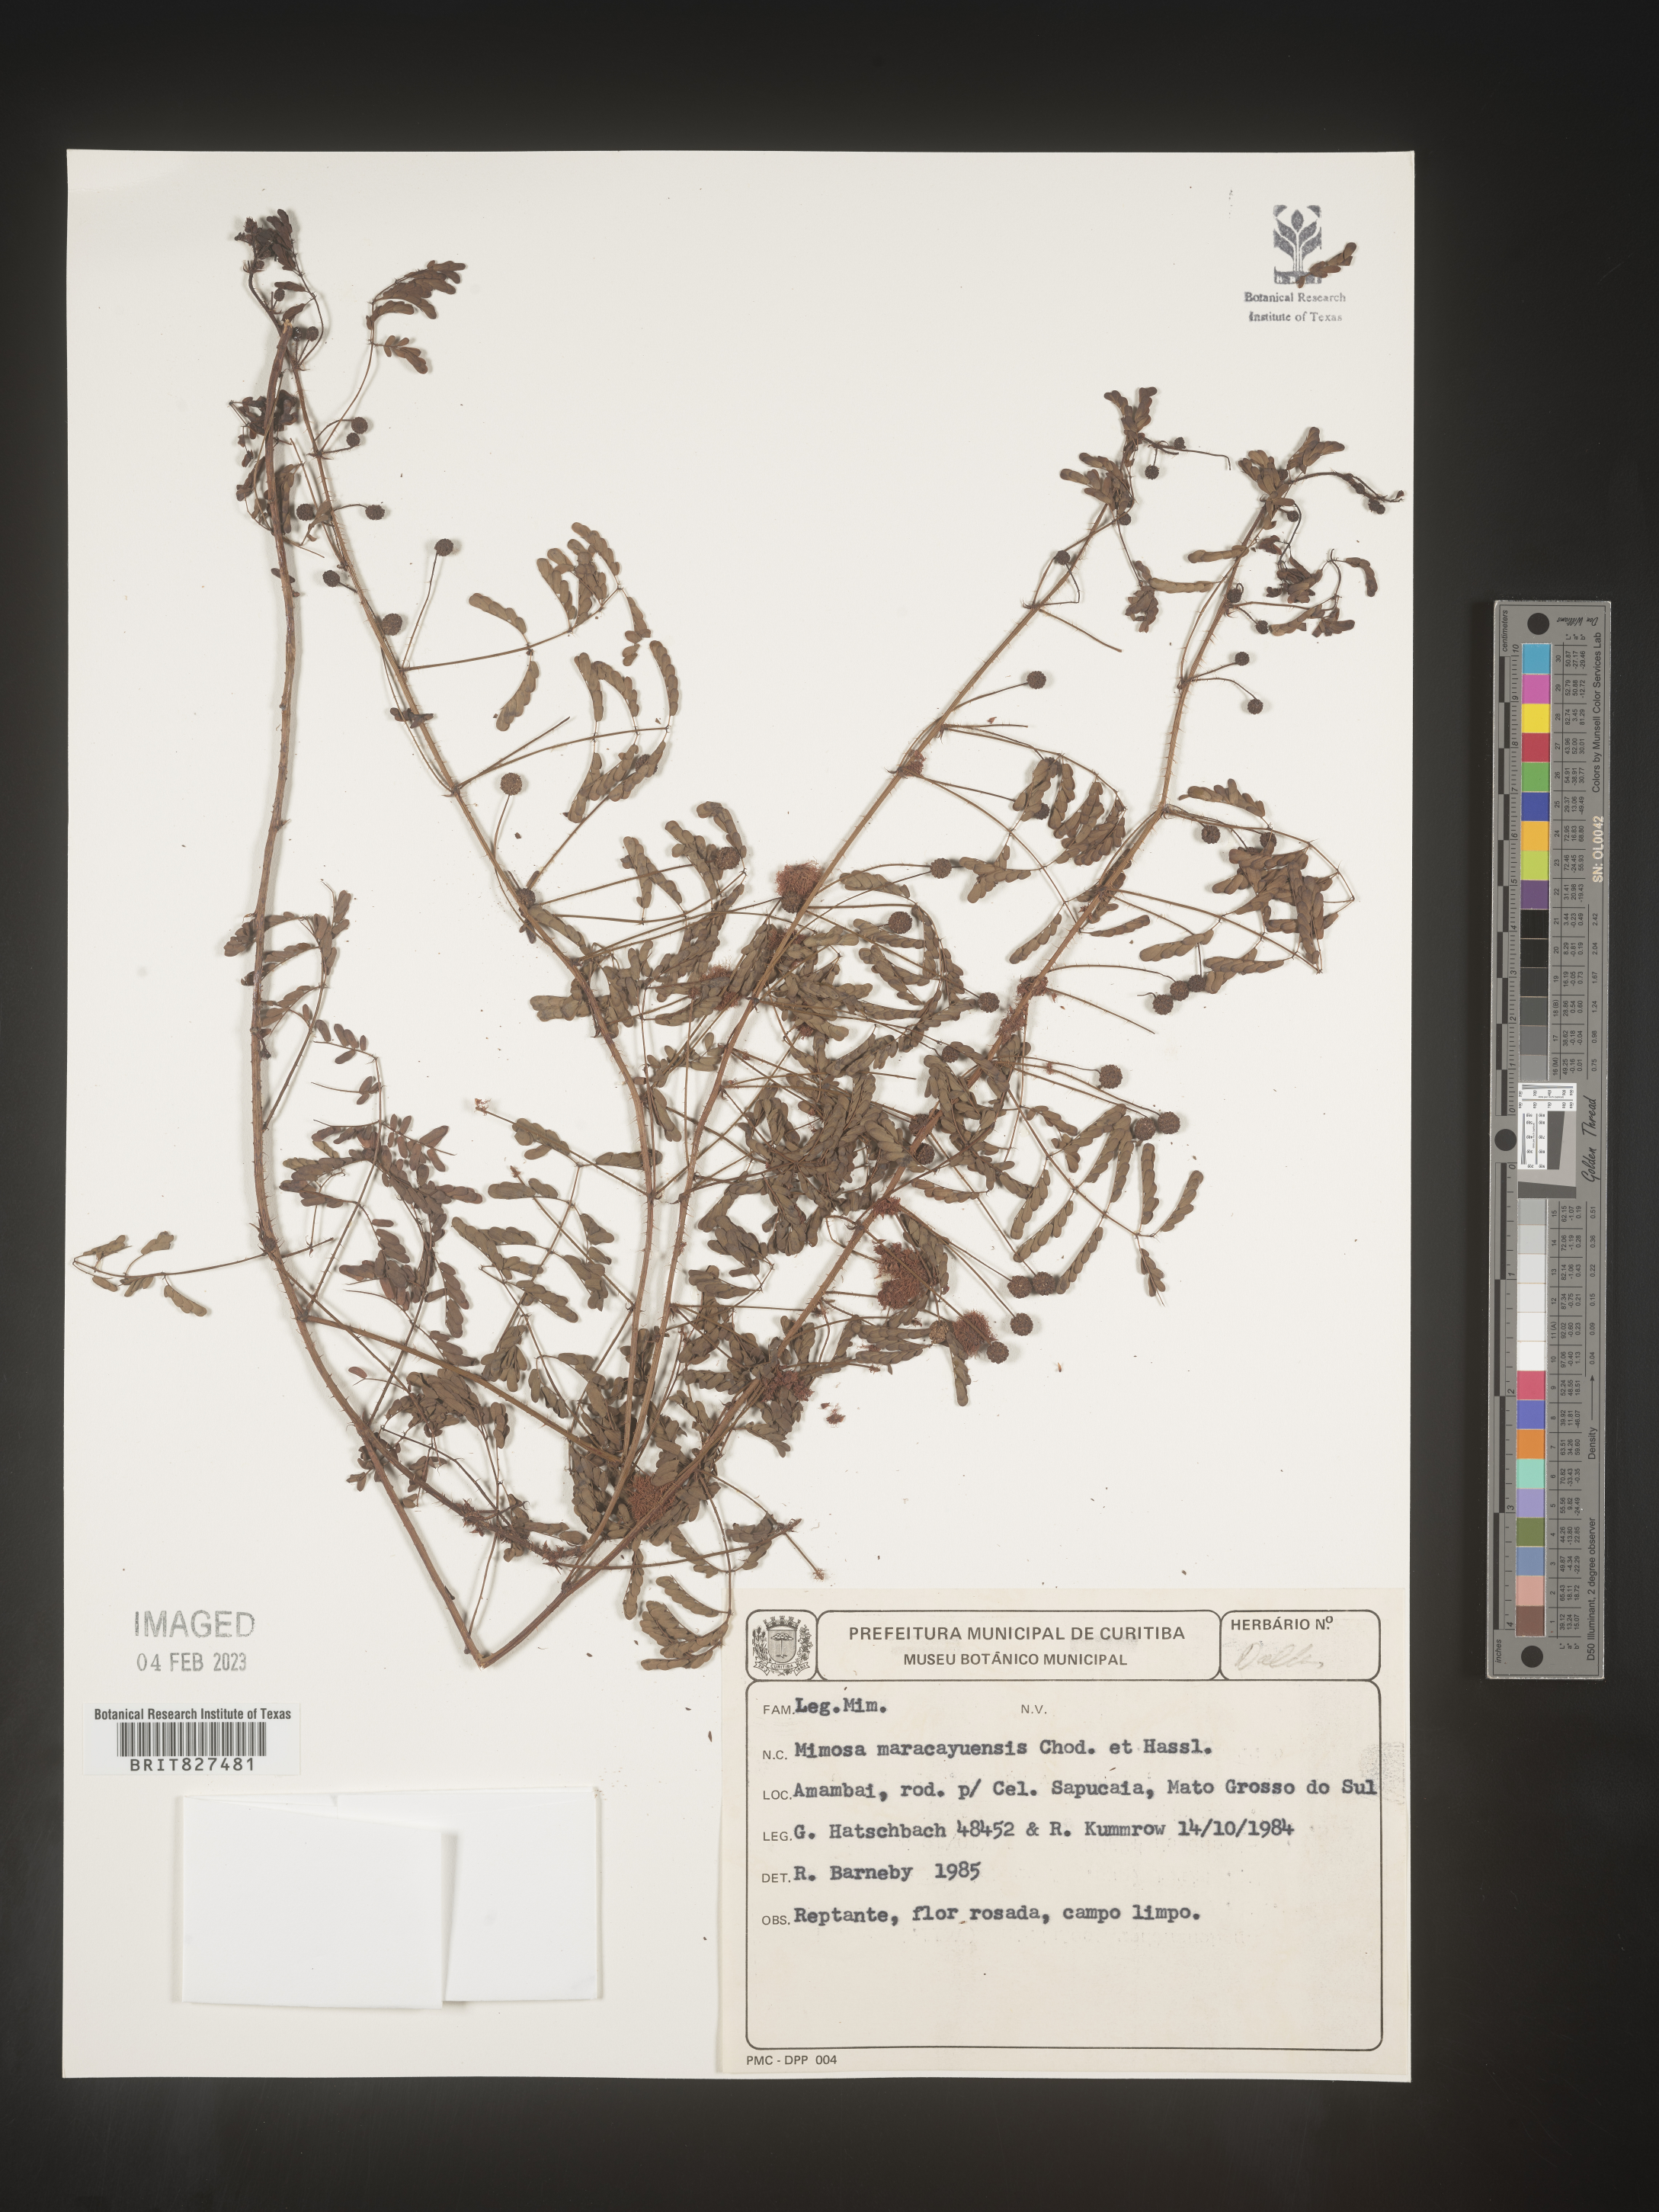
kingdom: Plantae
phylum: Tracheophyta
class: Magnoliopsida
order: Fabales
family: Fabaceae
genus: Mimosa
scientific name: Mimosa
